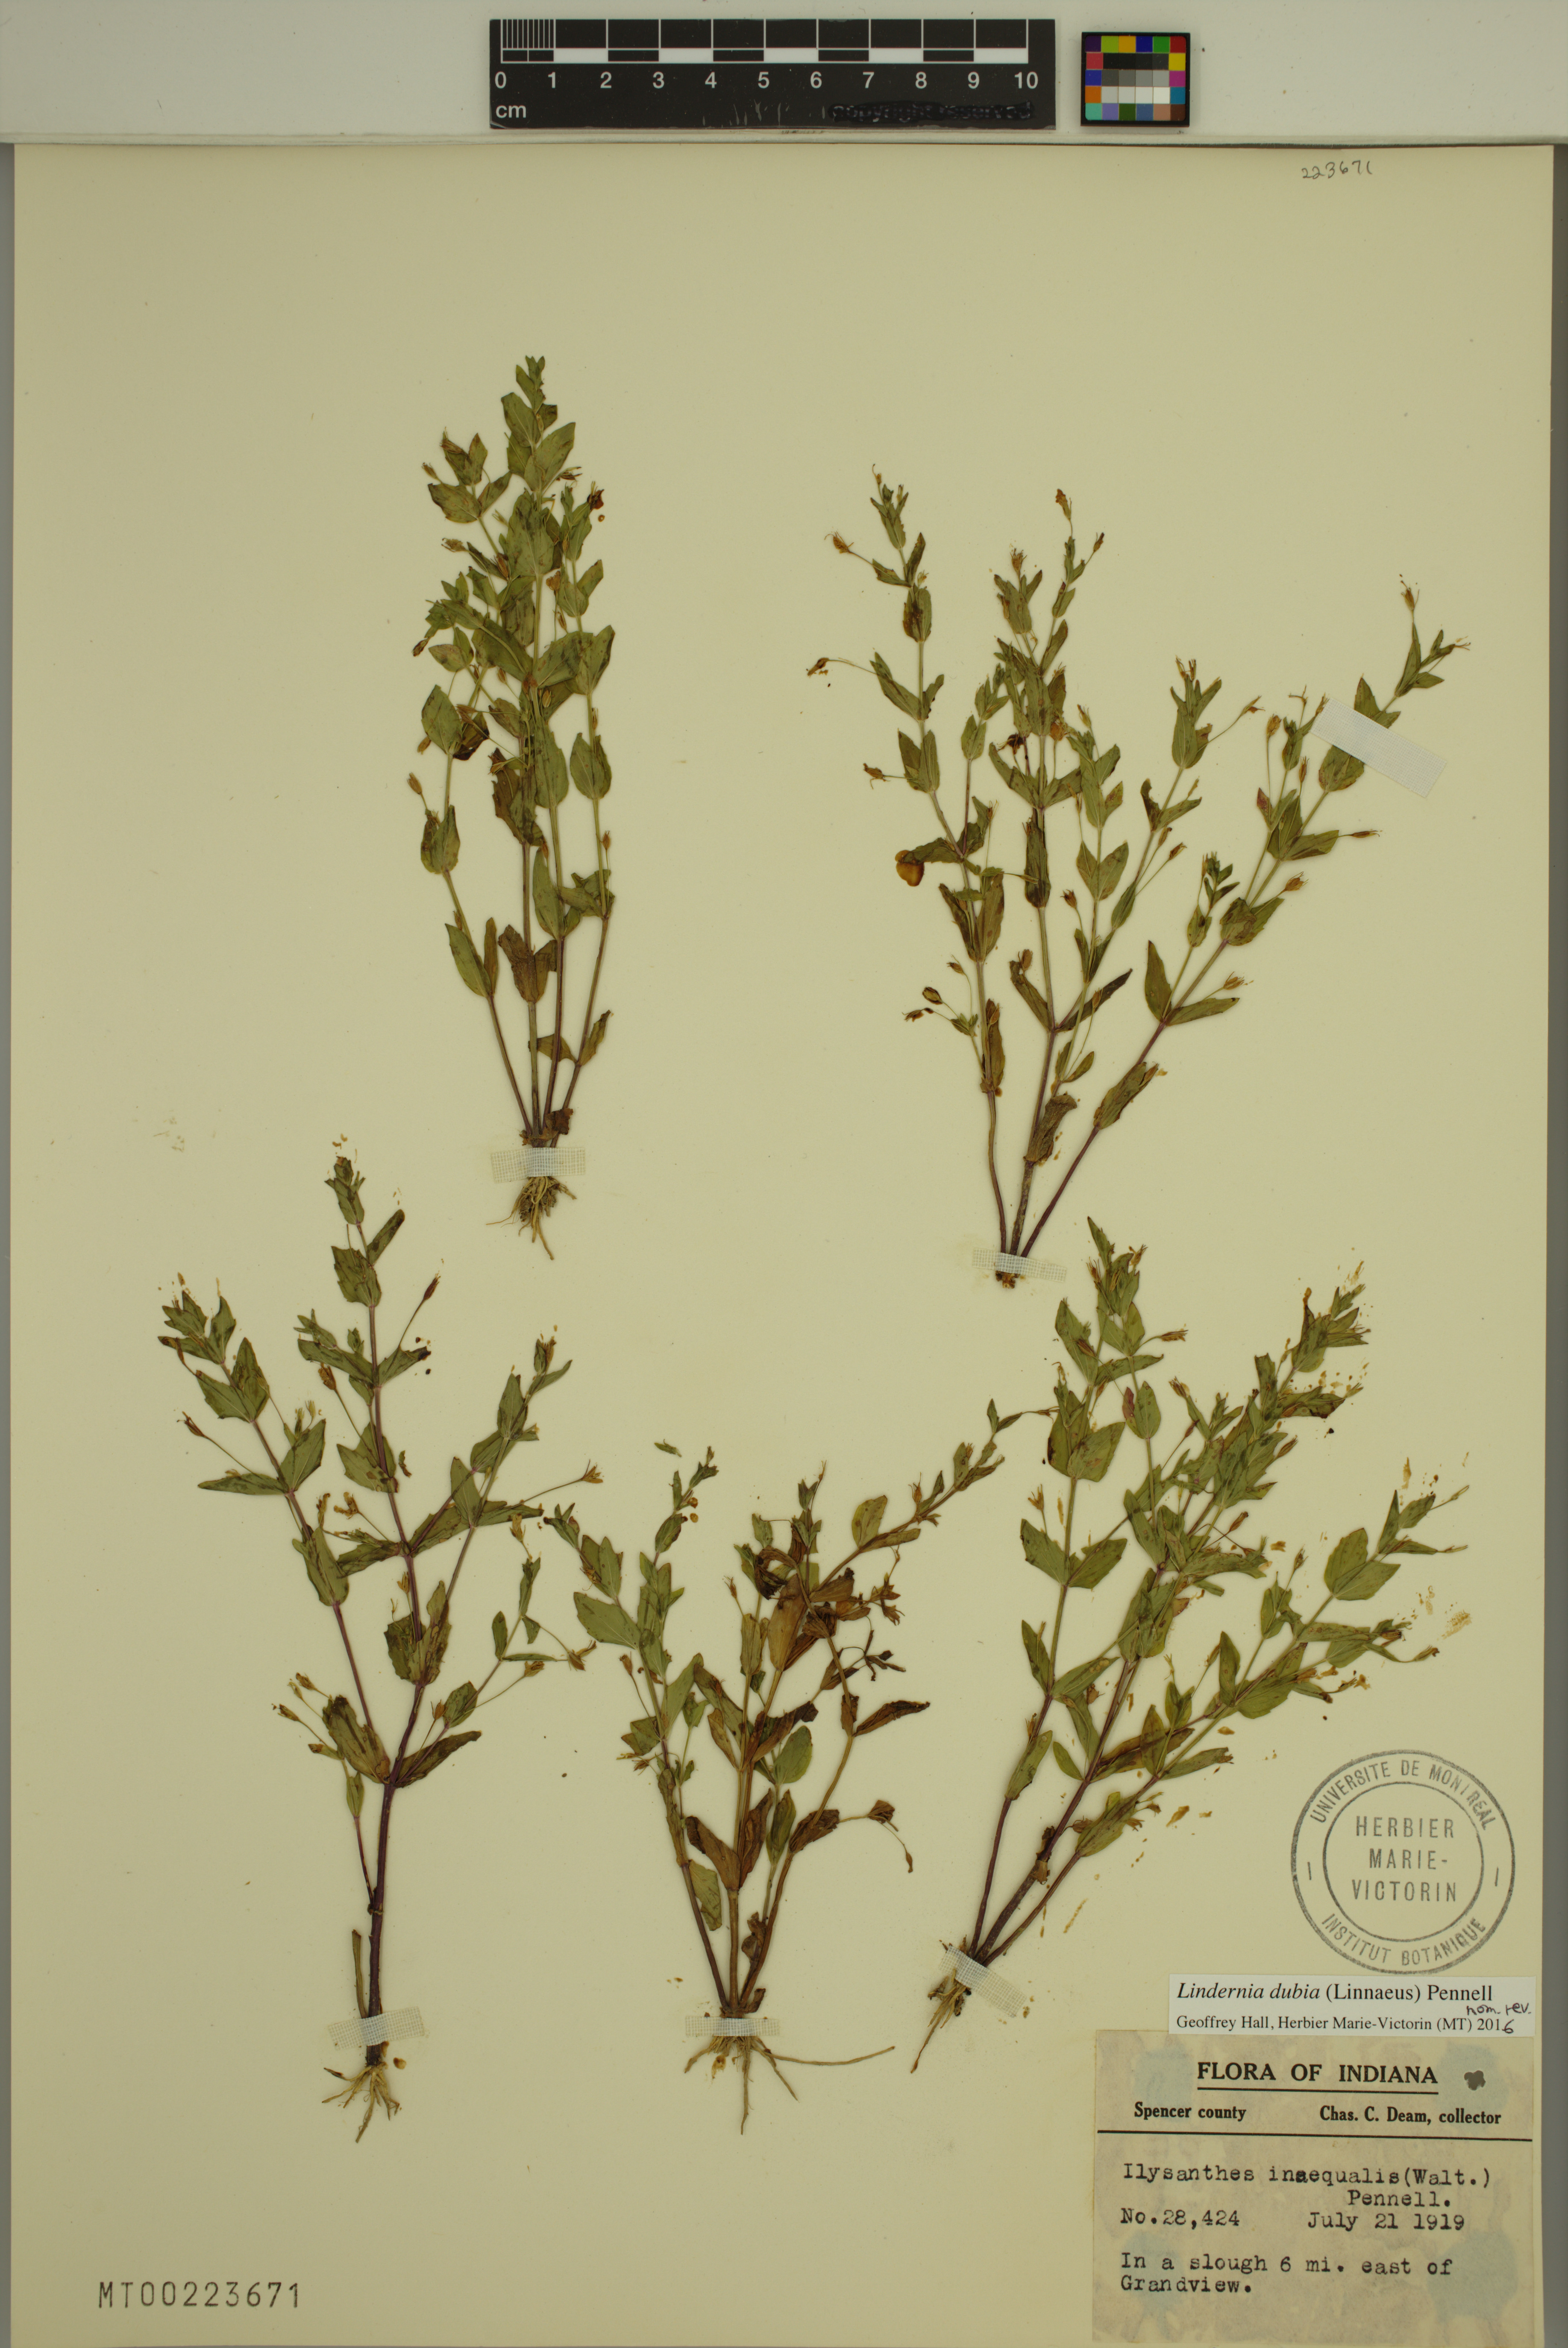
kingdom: Plantae
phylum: Tracheophyta
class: Magnoliopsida
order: Lamiales
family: Linderniaceae
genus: Lindernia
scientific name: Lindernia dubia
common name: Annual false pimpernel
